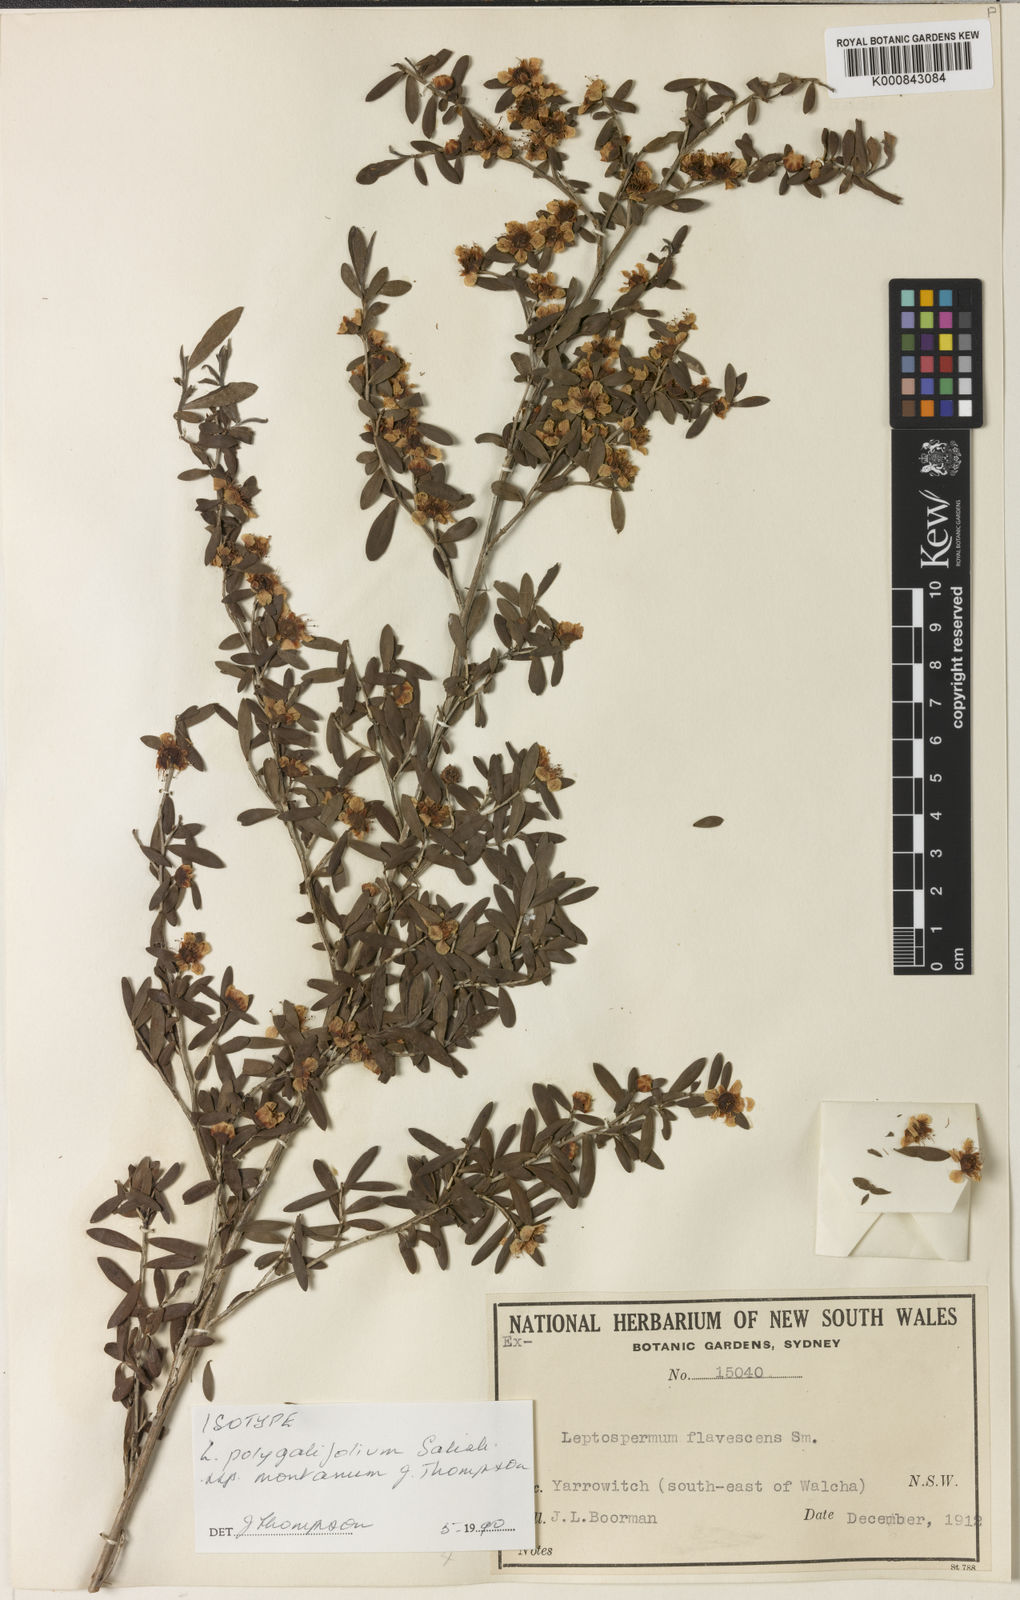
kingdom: Plantae
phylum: Tracheophyta
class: Magnoliopsida
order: Myrtales
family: Myrtaceae
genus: Leptospermum
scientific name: Leptospermum polygalifolium
